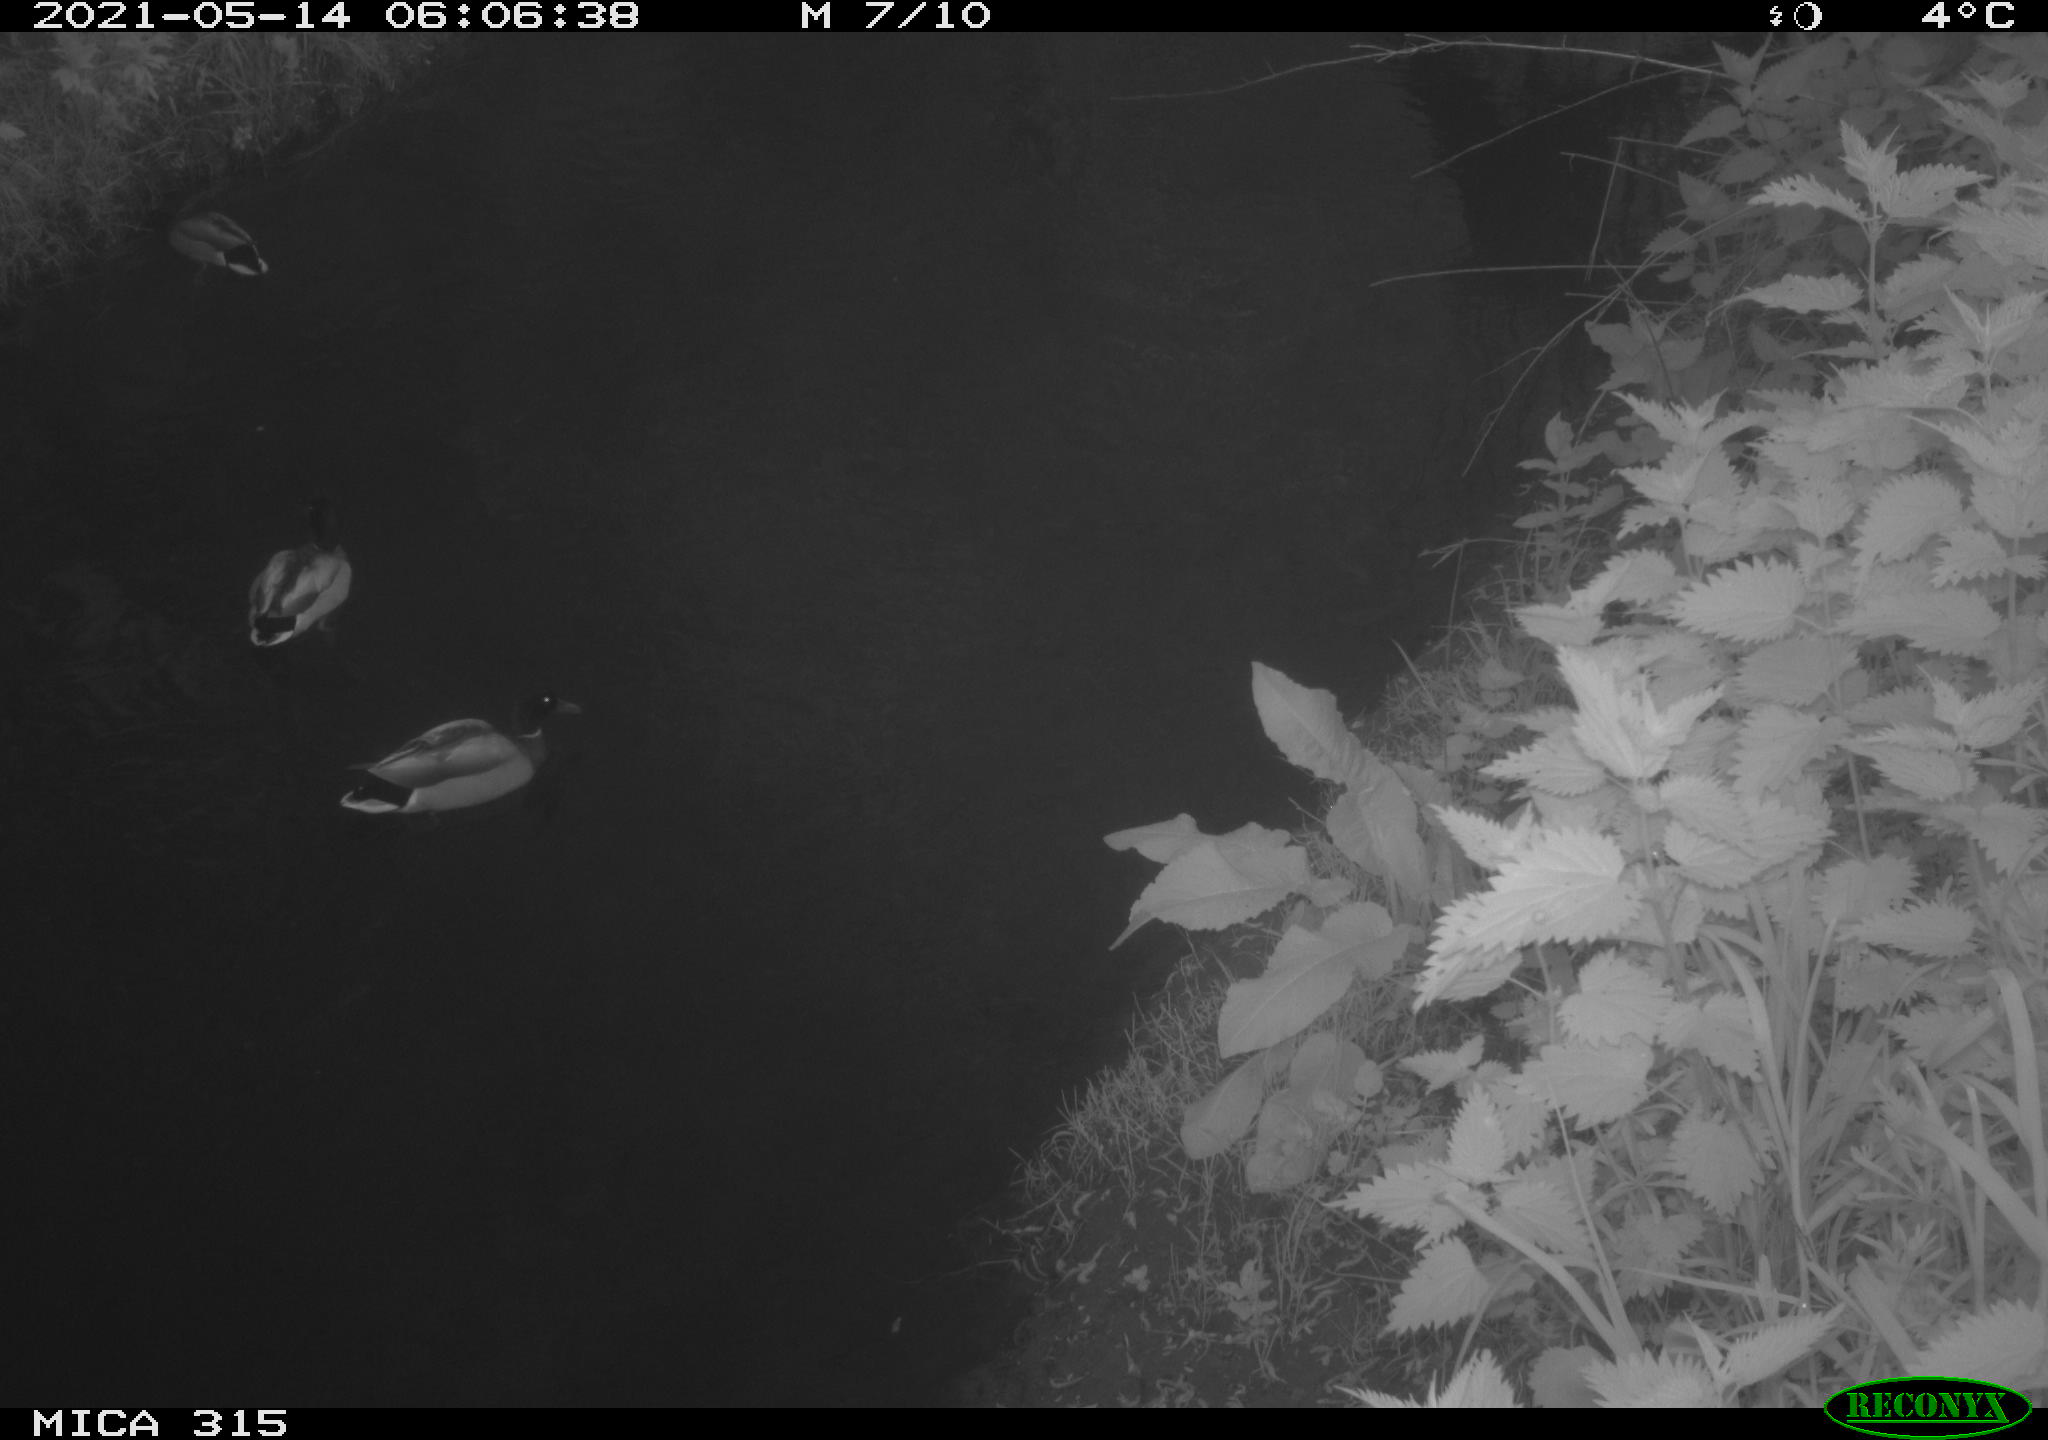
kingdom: Animalia
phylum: Chordata
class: Aves
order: Anseriformes
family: Anatidae
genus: Anas
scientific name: Anas
